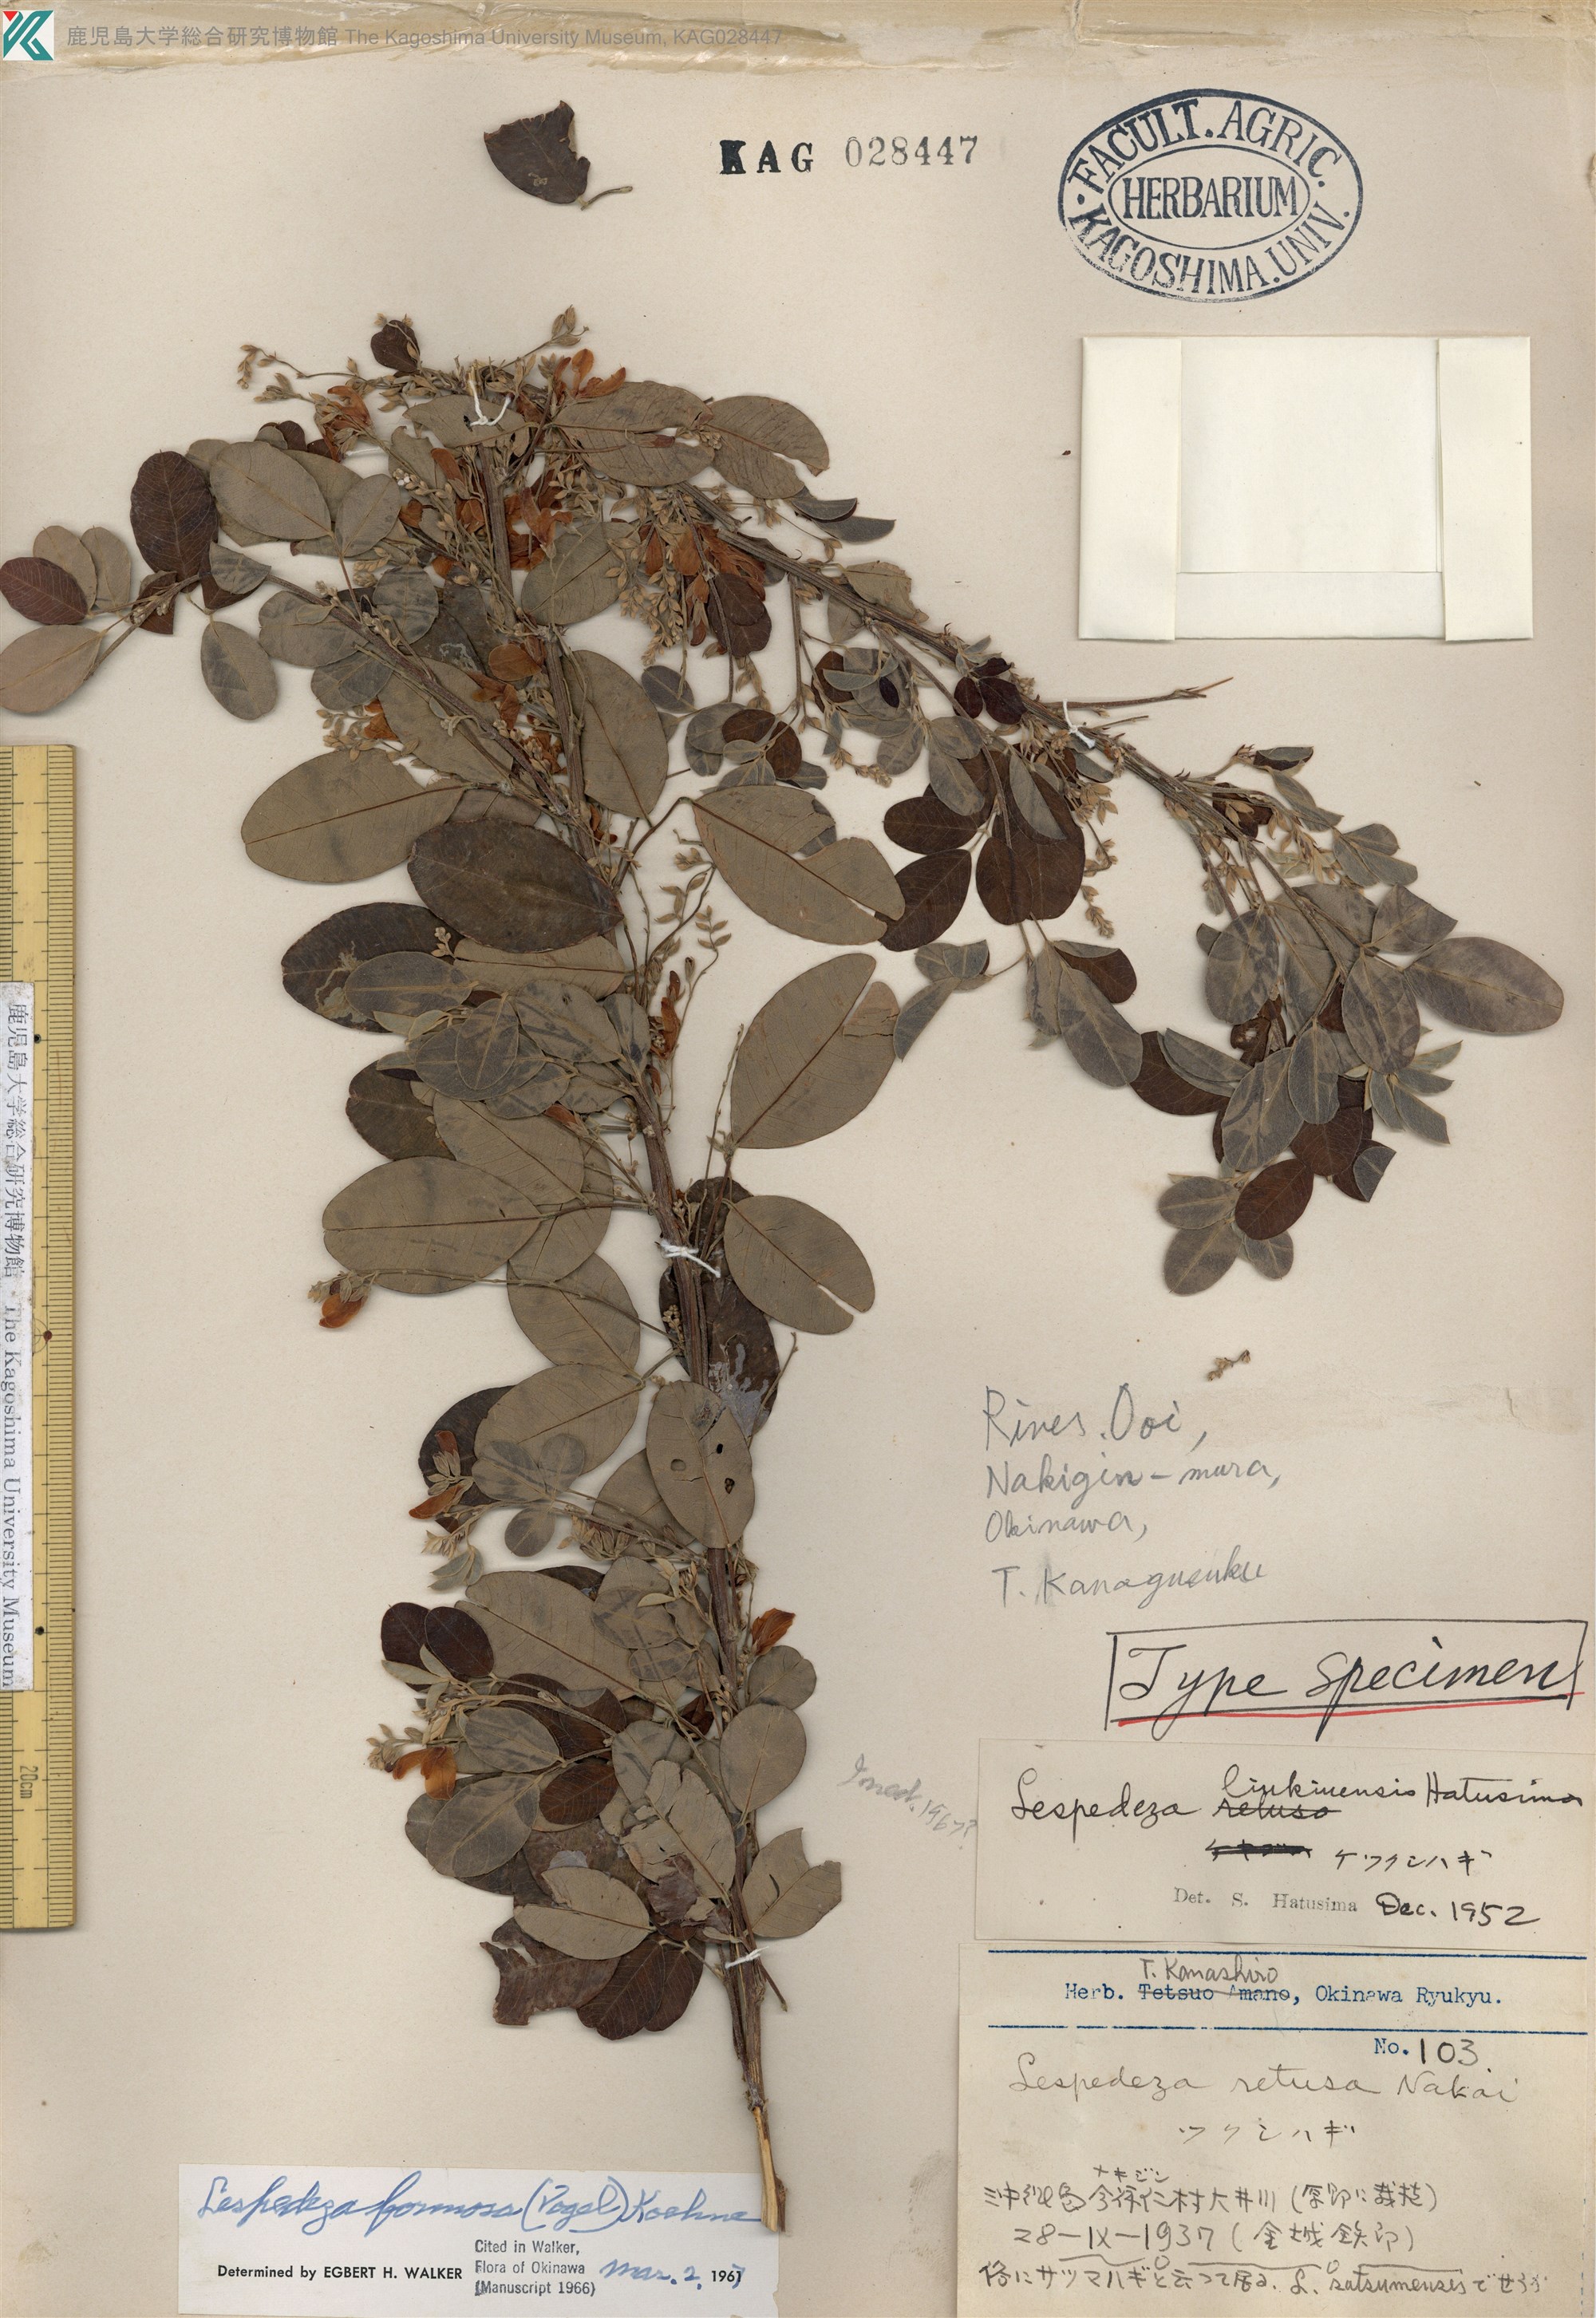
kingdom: Plantae
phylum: Tracheophyta
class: Magnoliopsida
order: Fabales
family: Fabaceae
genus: Lespedeza
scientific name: Lespedeza thunbergii
